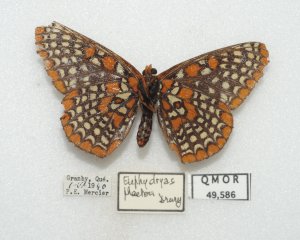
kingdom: Animalia
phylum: Arthropoda
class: Insecta
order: Lepidoptera
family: Nymphalidae
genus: Euphydryas
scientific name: Euphydryas phaeton
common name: Baltimore Checkerspot
